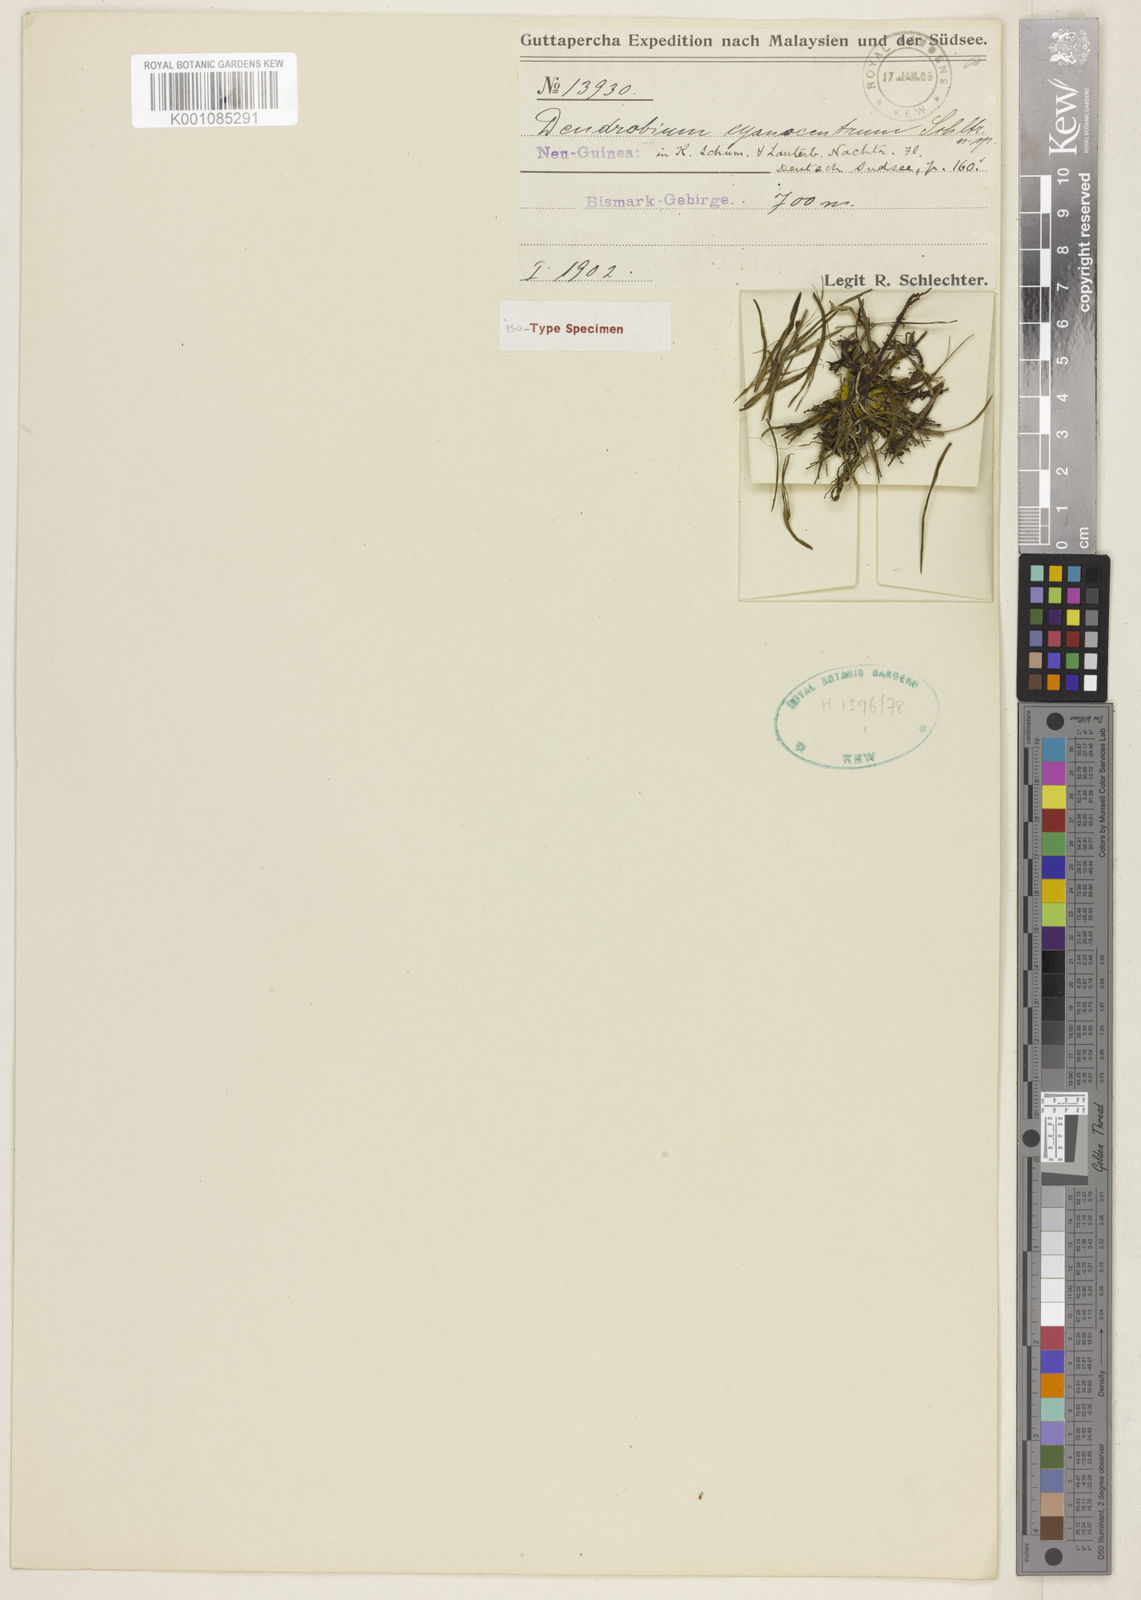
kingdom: Plantae
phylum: Tracheophyta
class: Liliopsida
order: Asparagales
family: Orchidaceae
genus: Dendrobium
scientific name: Dendrobium cyanocentrum
